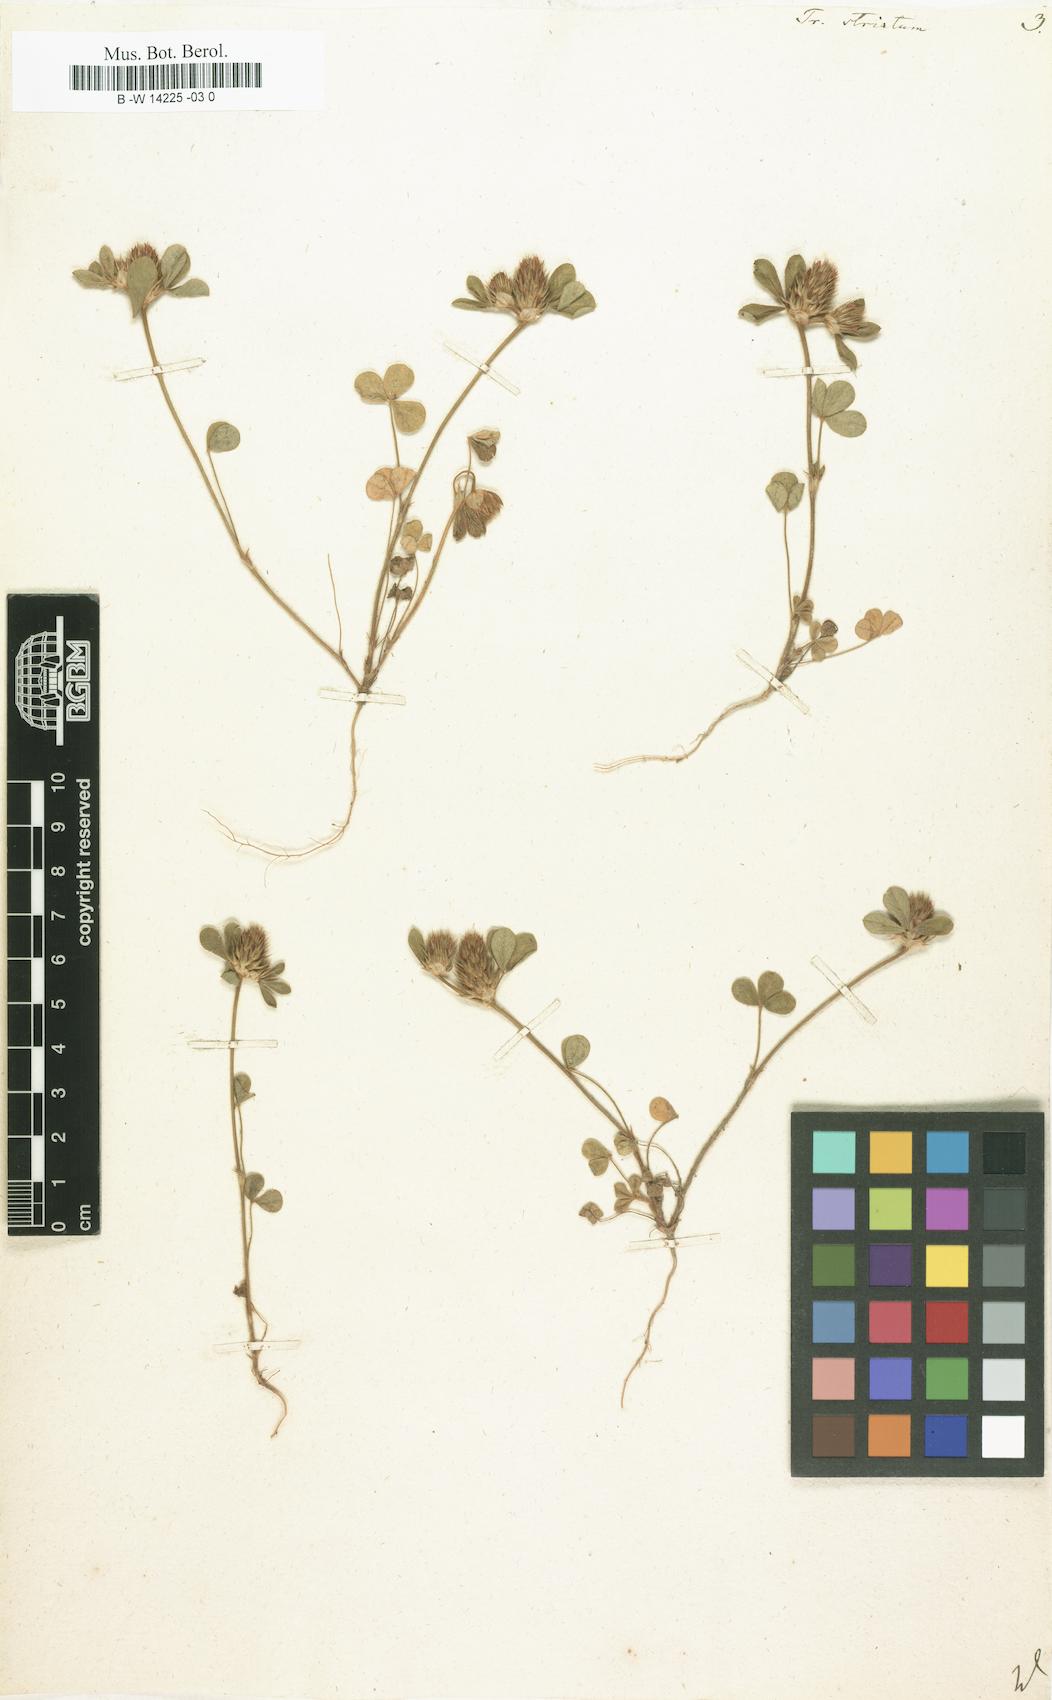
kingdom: Plantae
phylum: Tracheophyta
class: Magnoliopsida
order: Fabales
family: Fabaceae
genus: Trifolium
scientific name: Trifolium striatum
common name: Knotted clover
